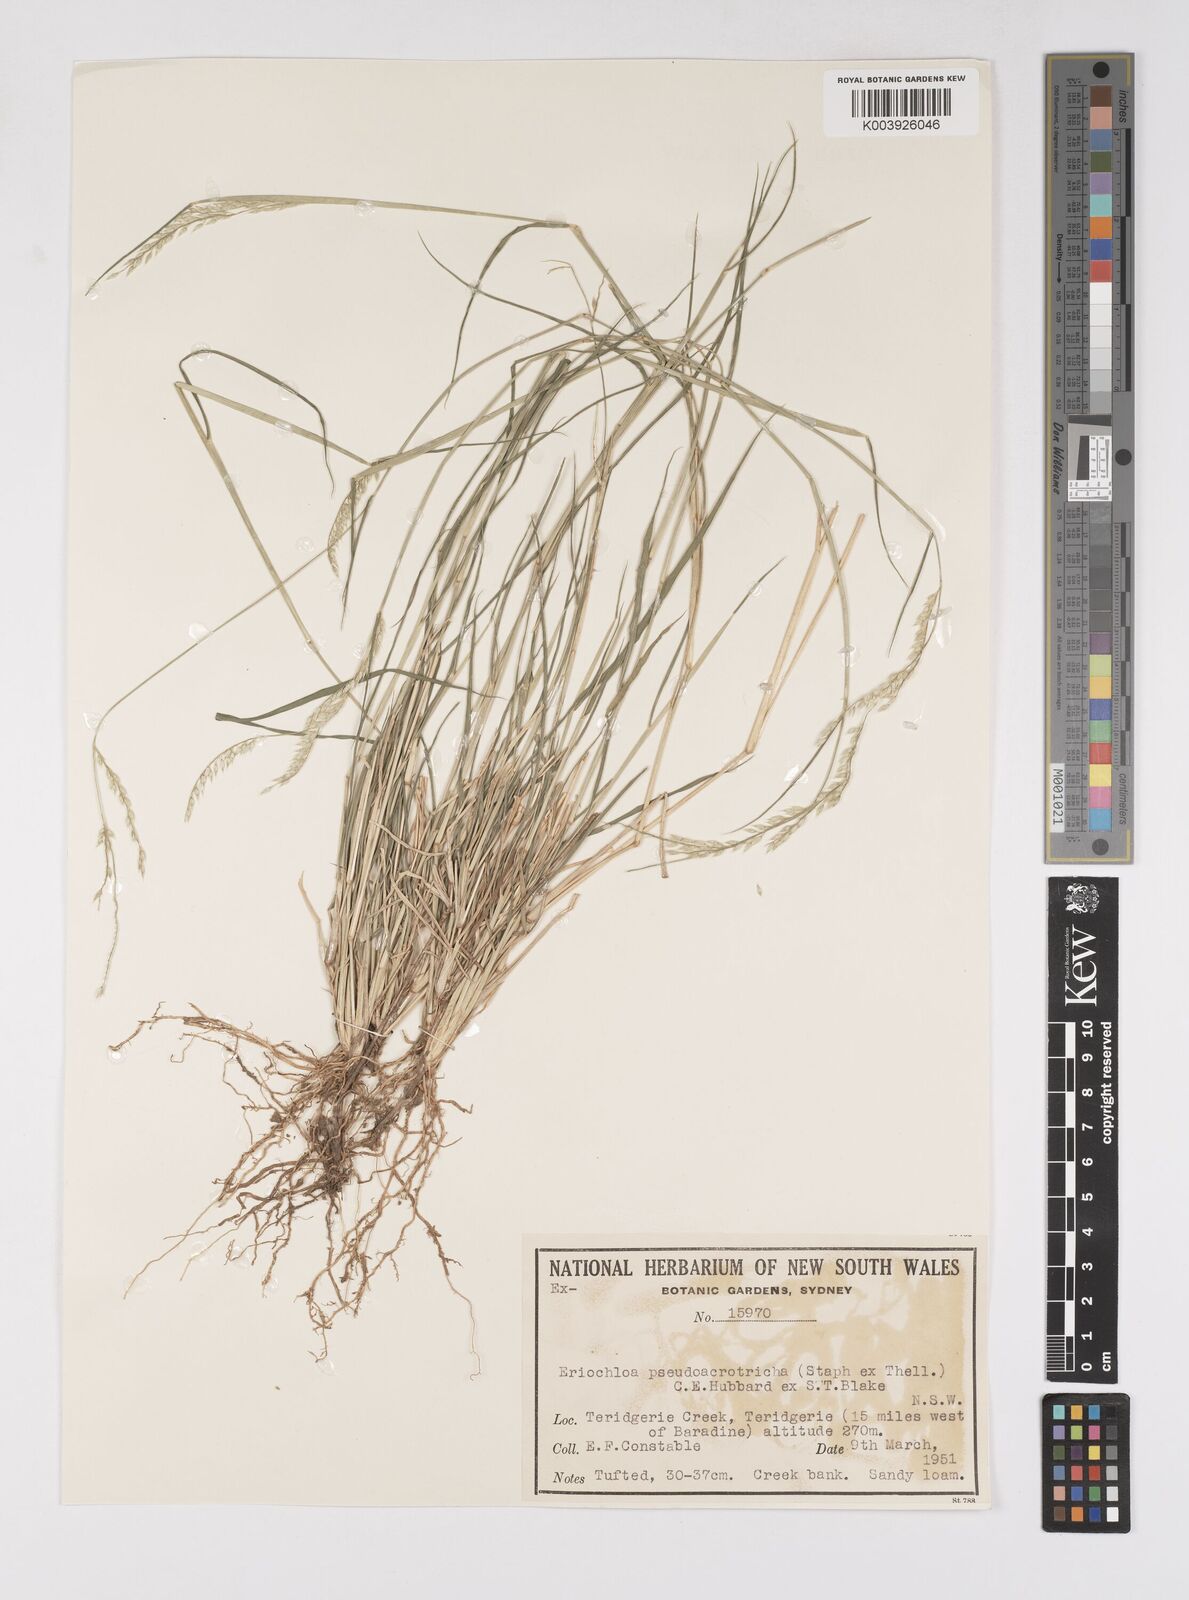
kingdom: Plantae
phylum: Tracheophyta
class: Liliopsida
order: Poales
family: Poaceae
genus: Eriochloa
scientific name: Eriochloa pseudoacrotricha
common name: Perennial cup-grass
